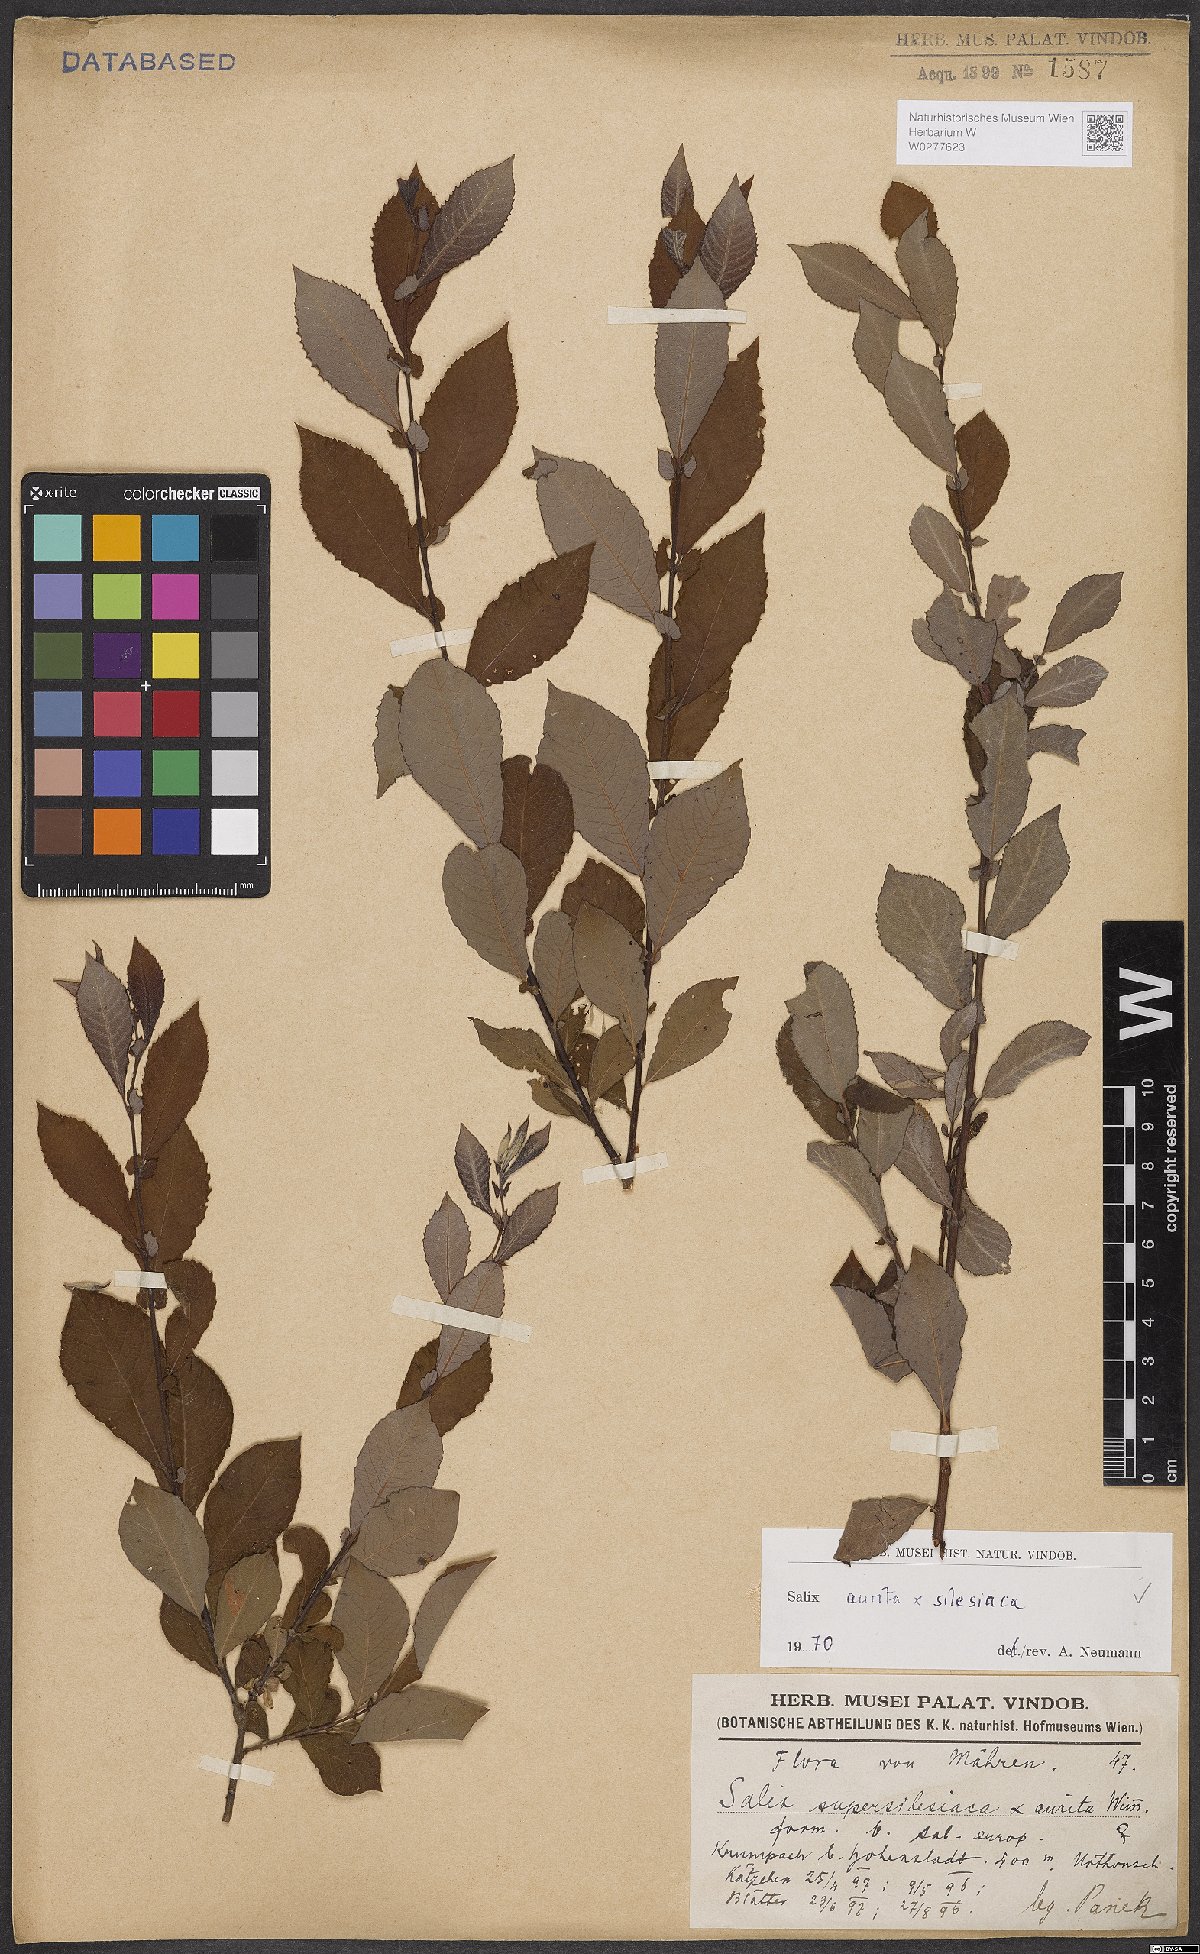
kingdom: Plantae
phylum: Tracheophyta
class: Magnoliopsida
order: Malpighiales
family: Salicaceae
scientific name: Salicaceae
